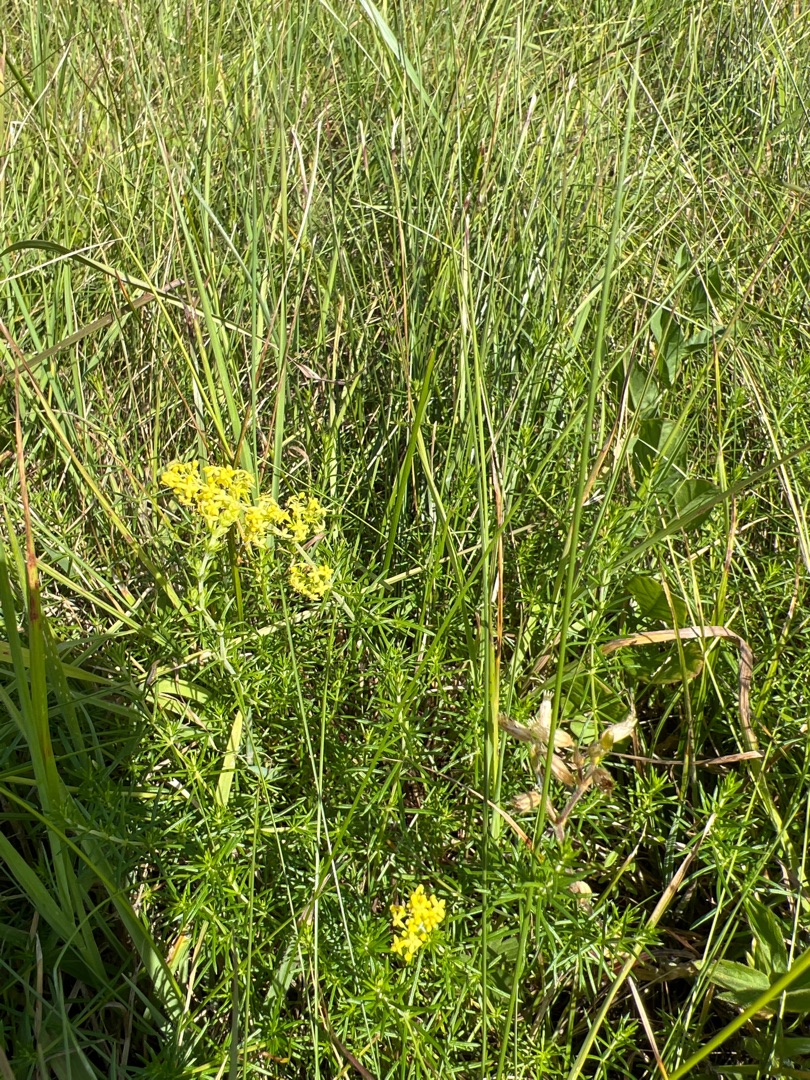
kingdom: Plantae
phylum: Tracheophyta
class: Magnoliopsida
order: Gentianales
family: Rubiaceae
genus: Galium
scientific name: Galium verum
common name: Gul snerre
